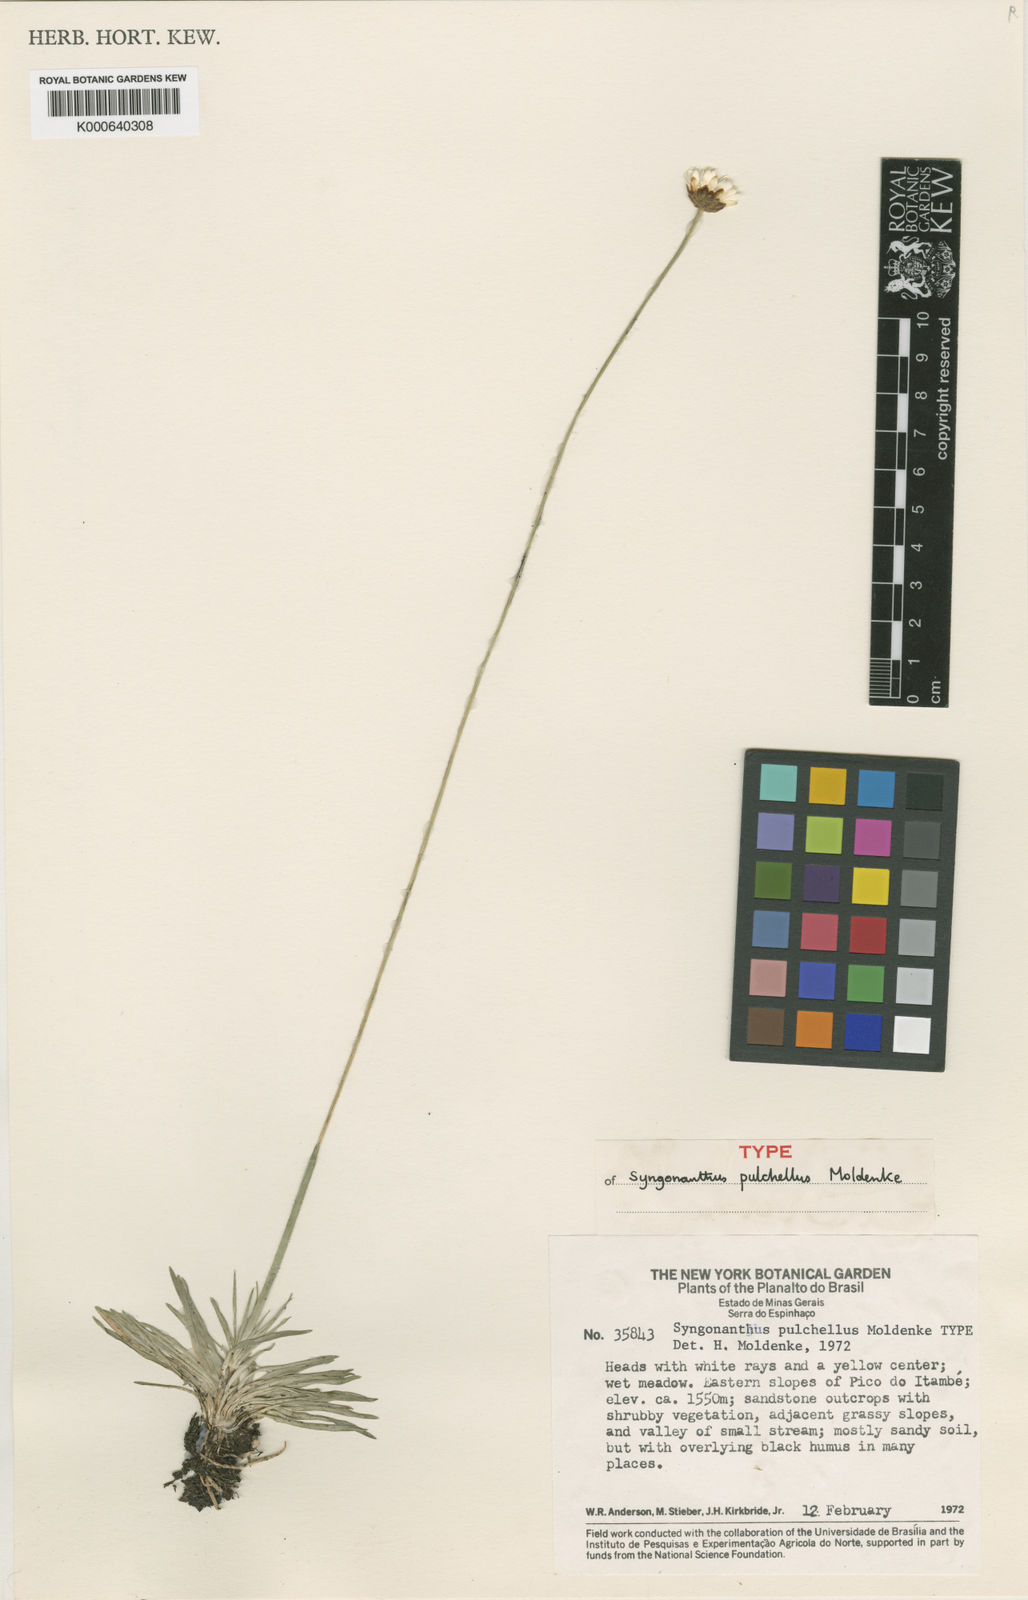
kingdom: Plantae
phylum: Tracheophyta
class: Liliopsida
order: Poales
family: Eriocaulaceae
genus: Syngonanthus
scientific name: Syngonanthus pulchellus
